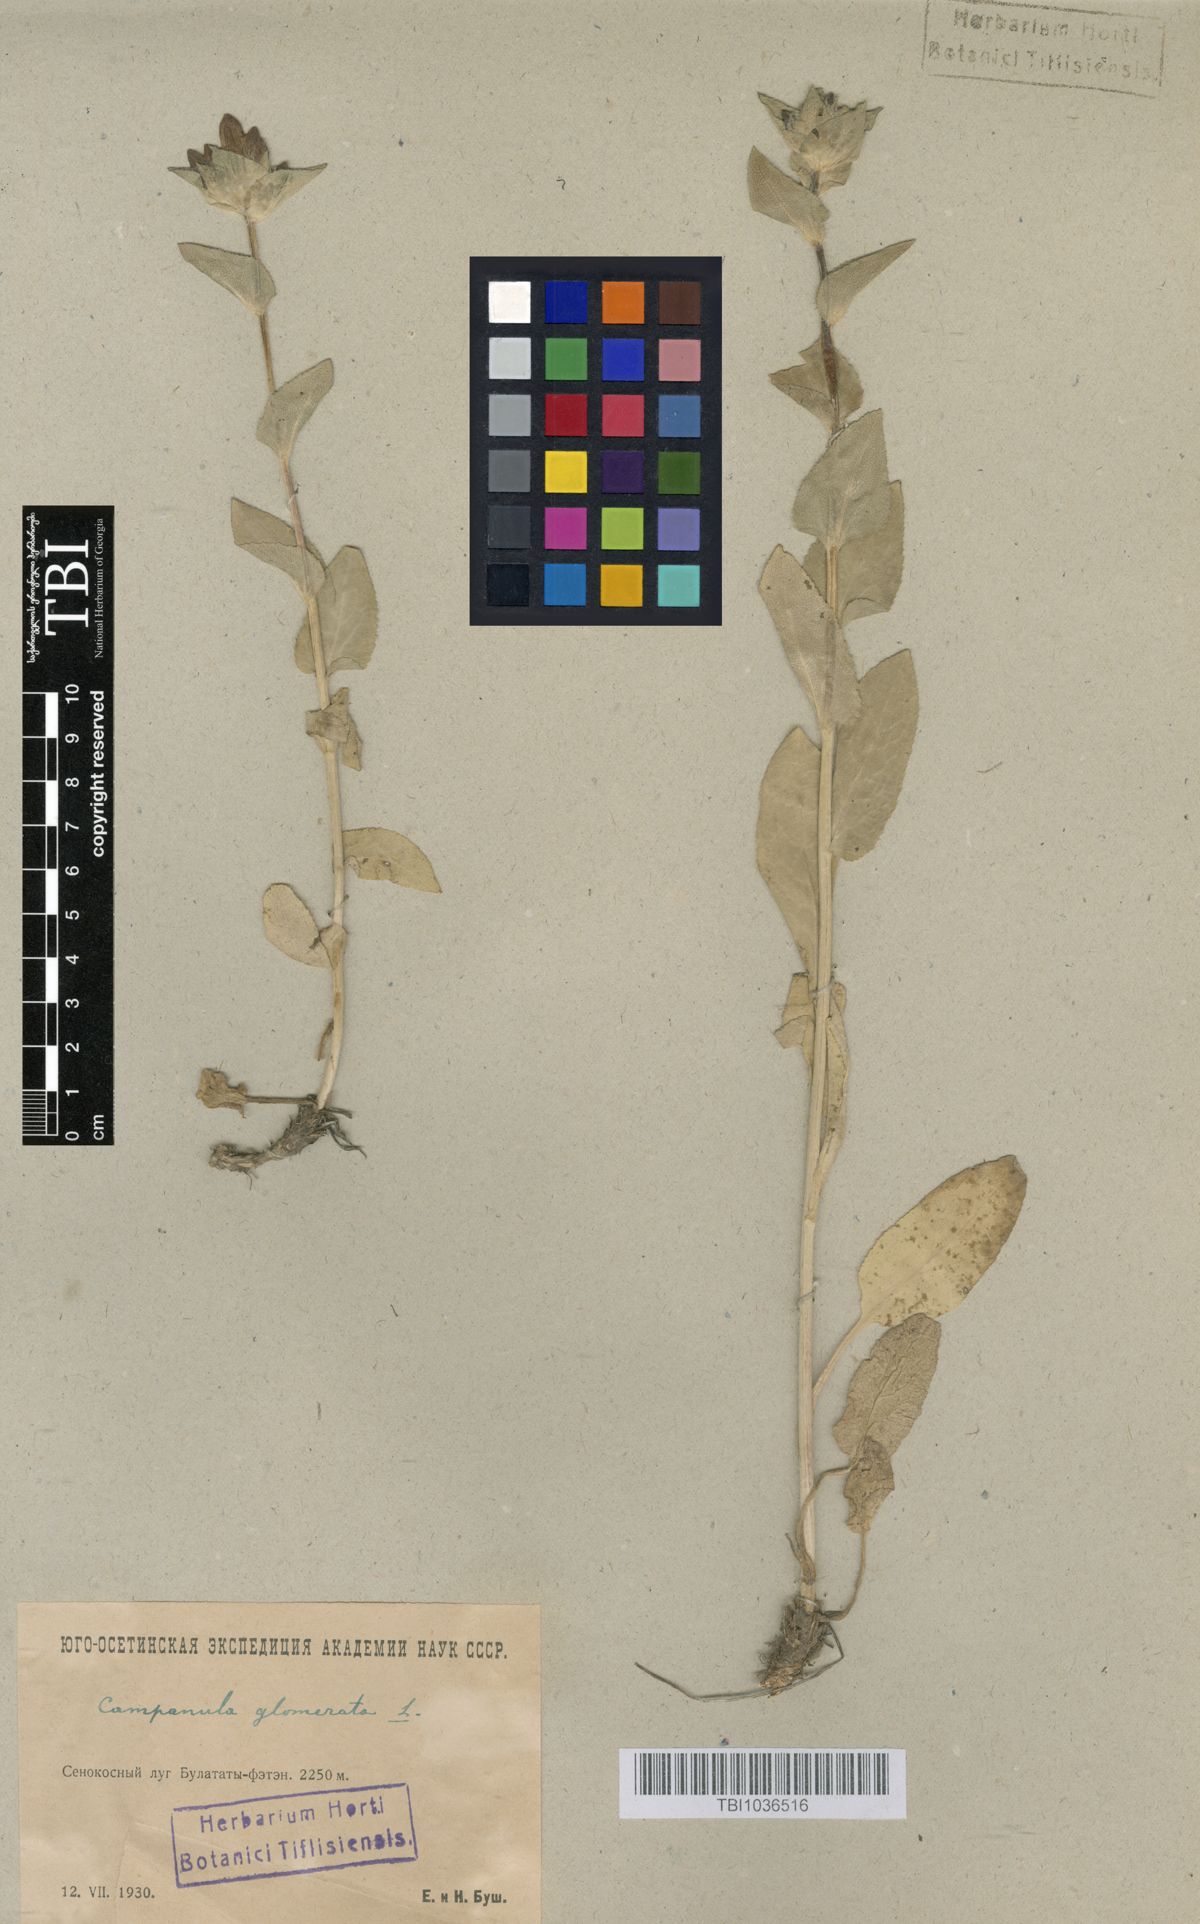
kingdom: Plantae
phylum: Tracheophyta
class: Magnoliopsida
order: Asterales
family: Campanulaceae
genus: Campanula
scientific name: Campanula glomerata
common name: Clustered bellflower
